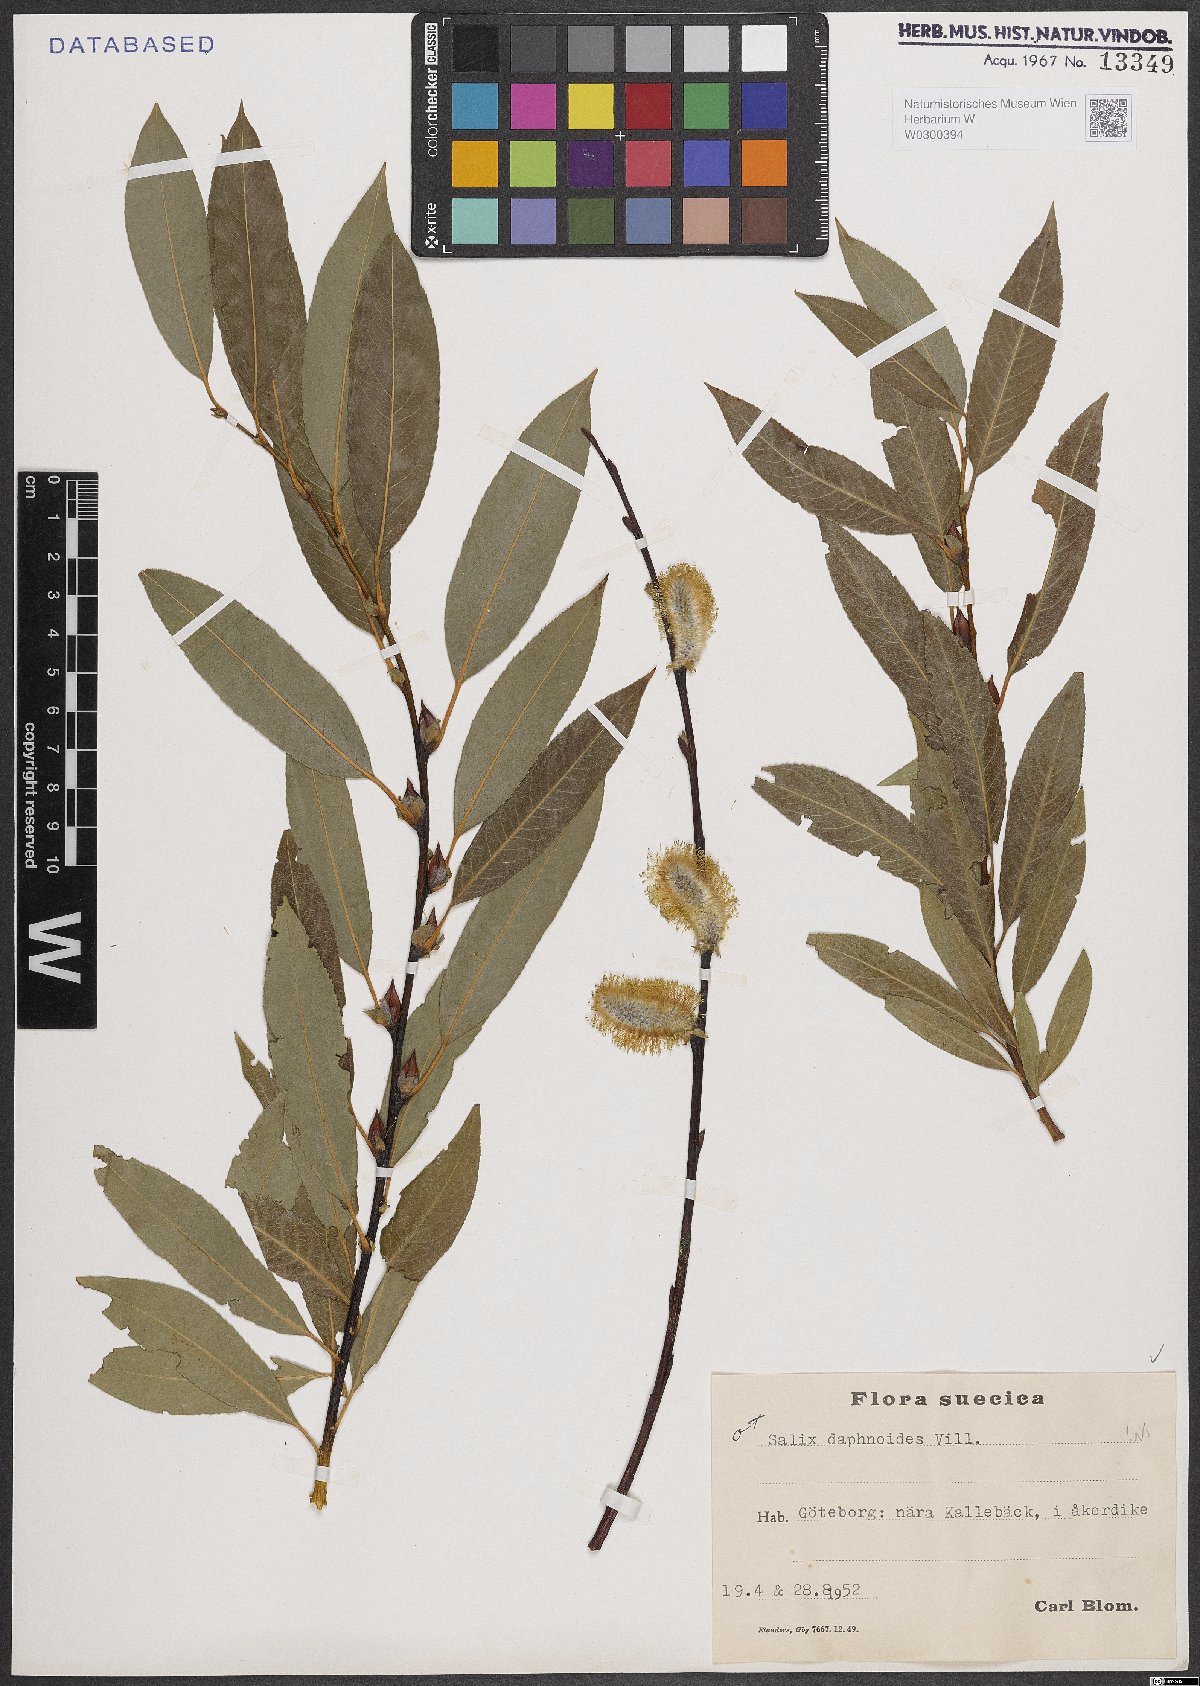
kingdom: Plantae
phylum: Tracheophyta
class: Magnoliopsida
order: Malpighiales
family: Salicaceae
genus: Salix
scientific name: Salix daphnoides
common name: European violet-willow
